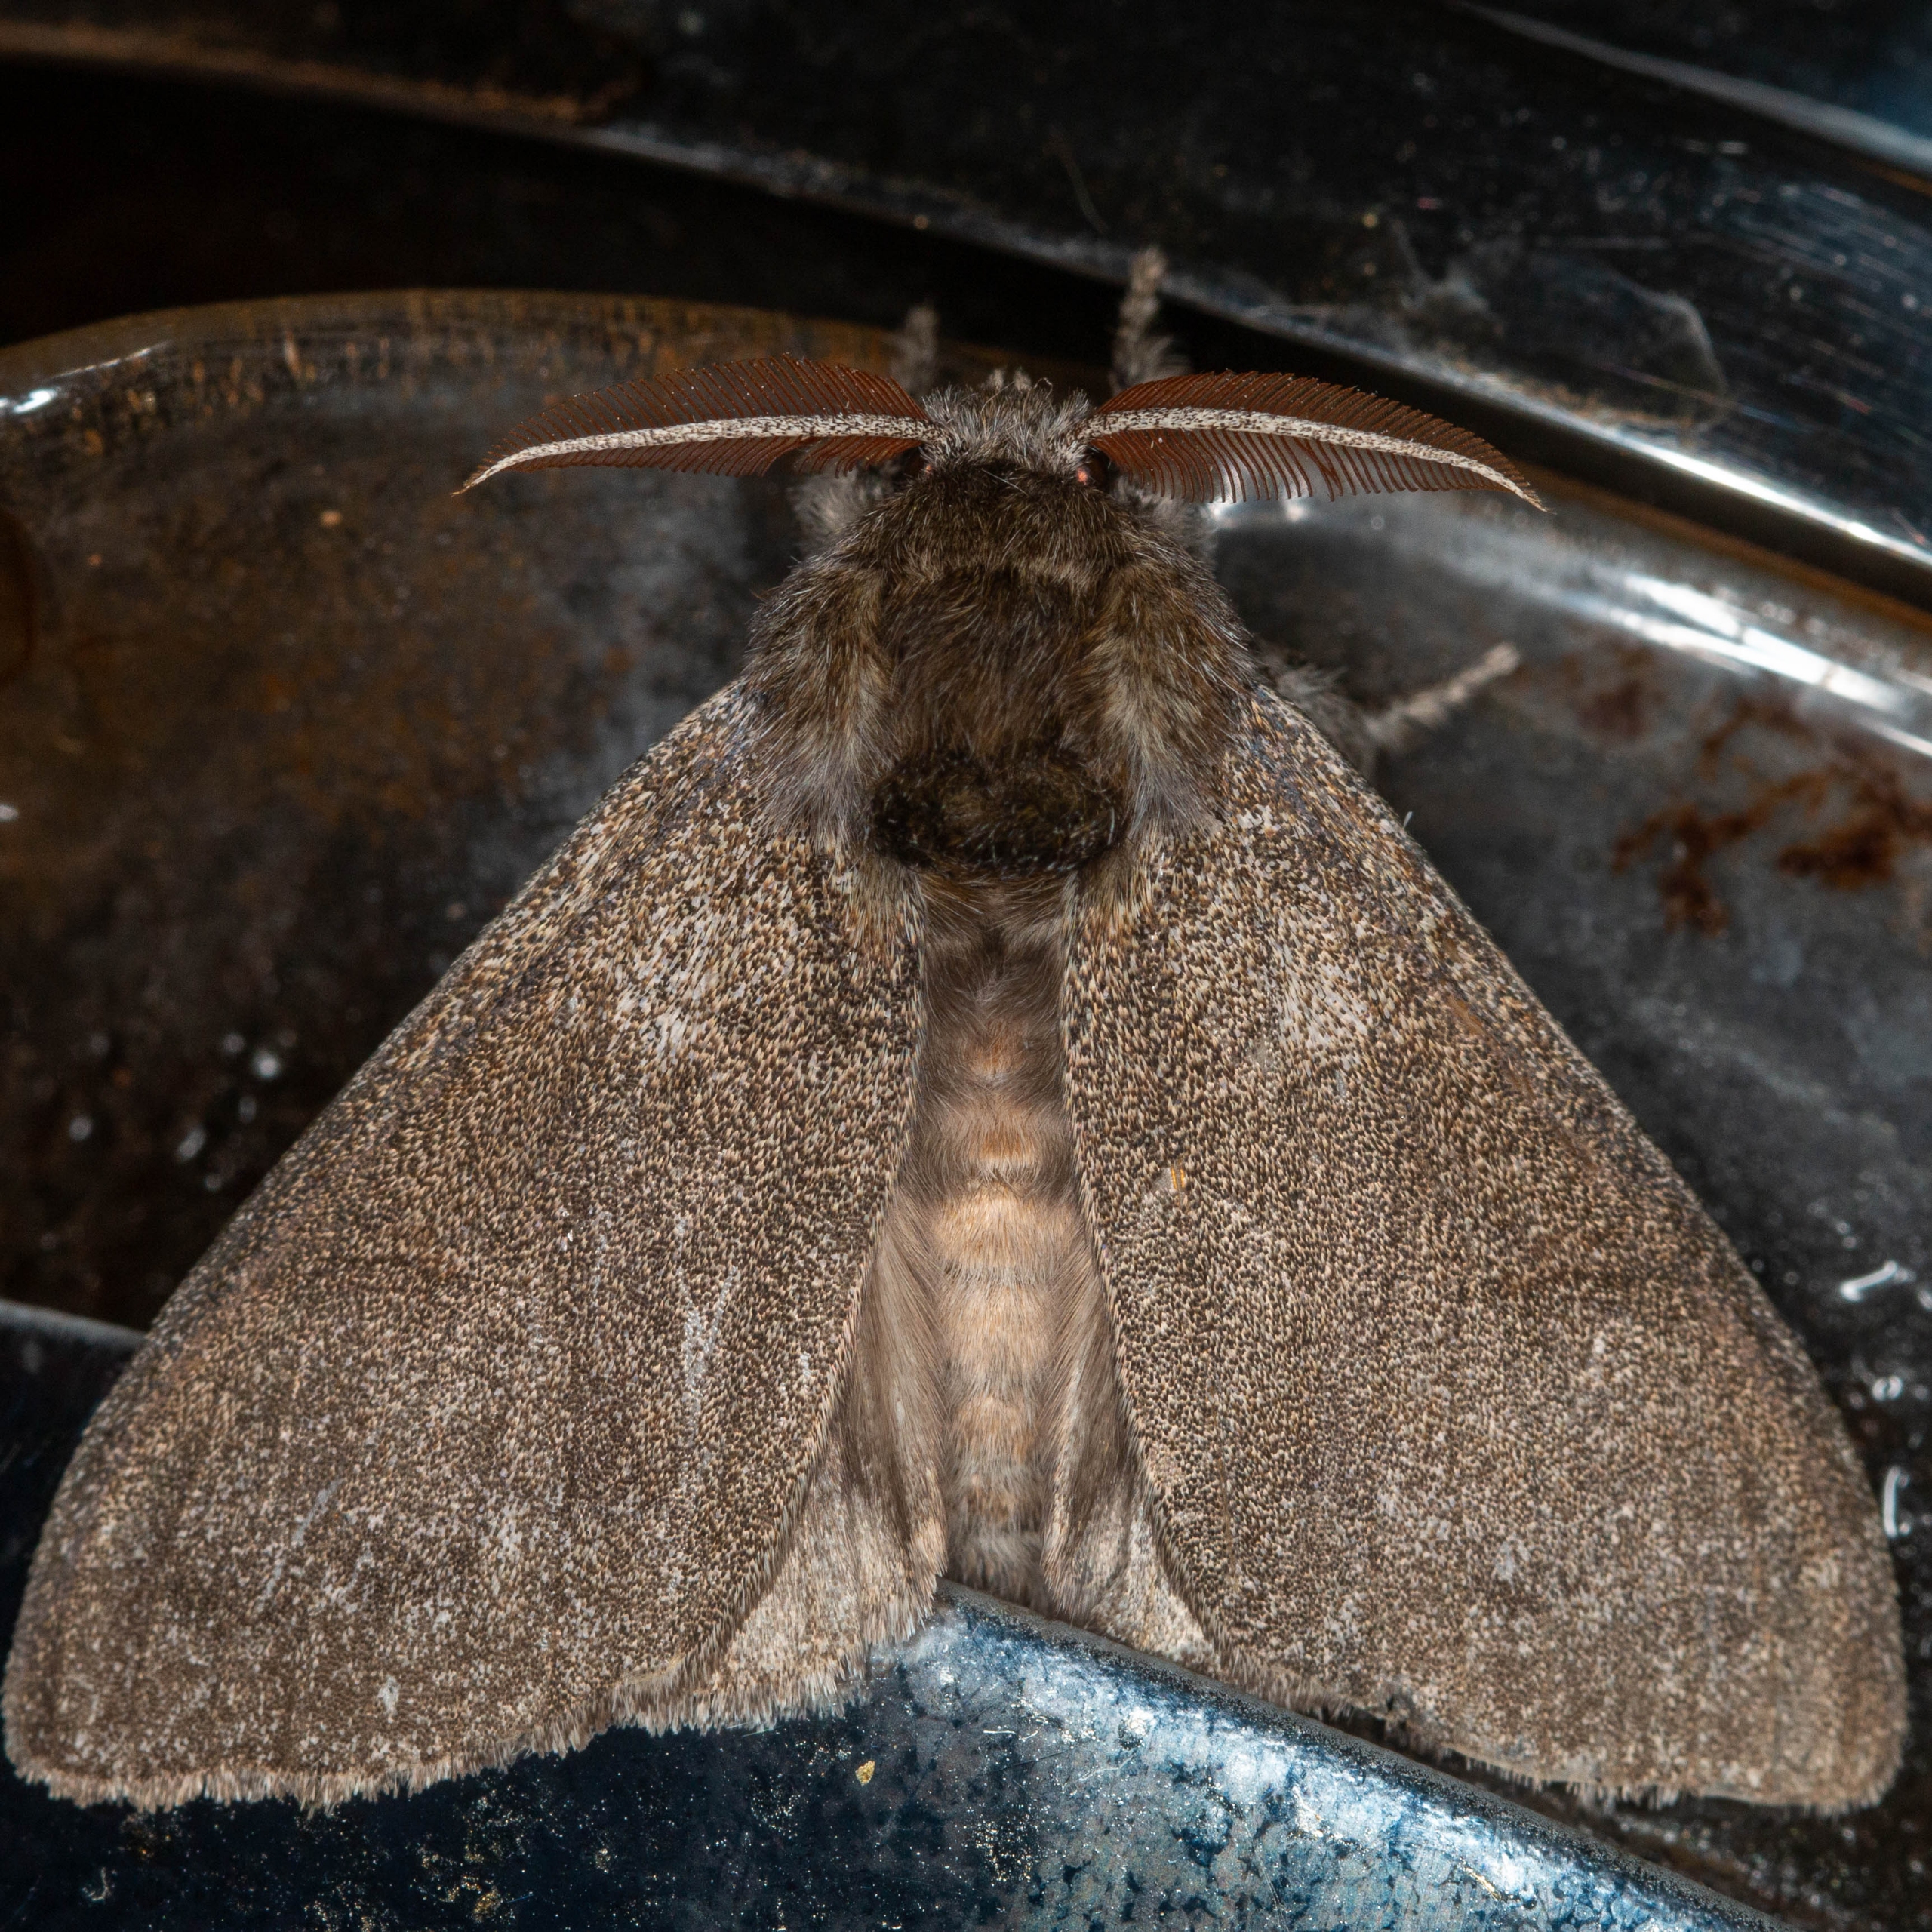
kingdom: Animalia
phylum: Arthropoda
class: Insecta
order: Lepidoptera
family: Erebidae
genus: Calliteara
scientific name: Calliteara pudibunda
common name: Bøgenonne
